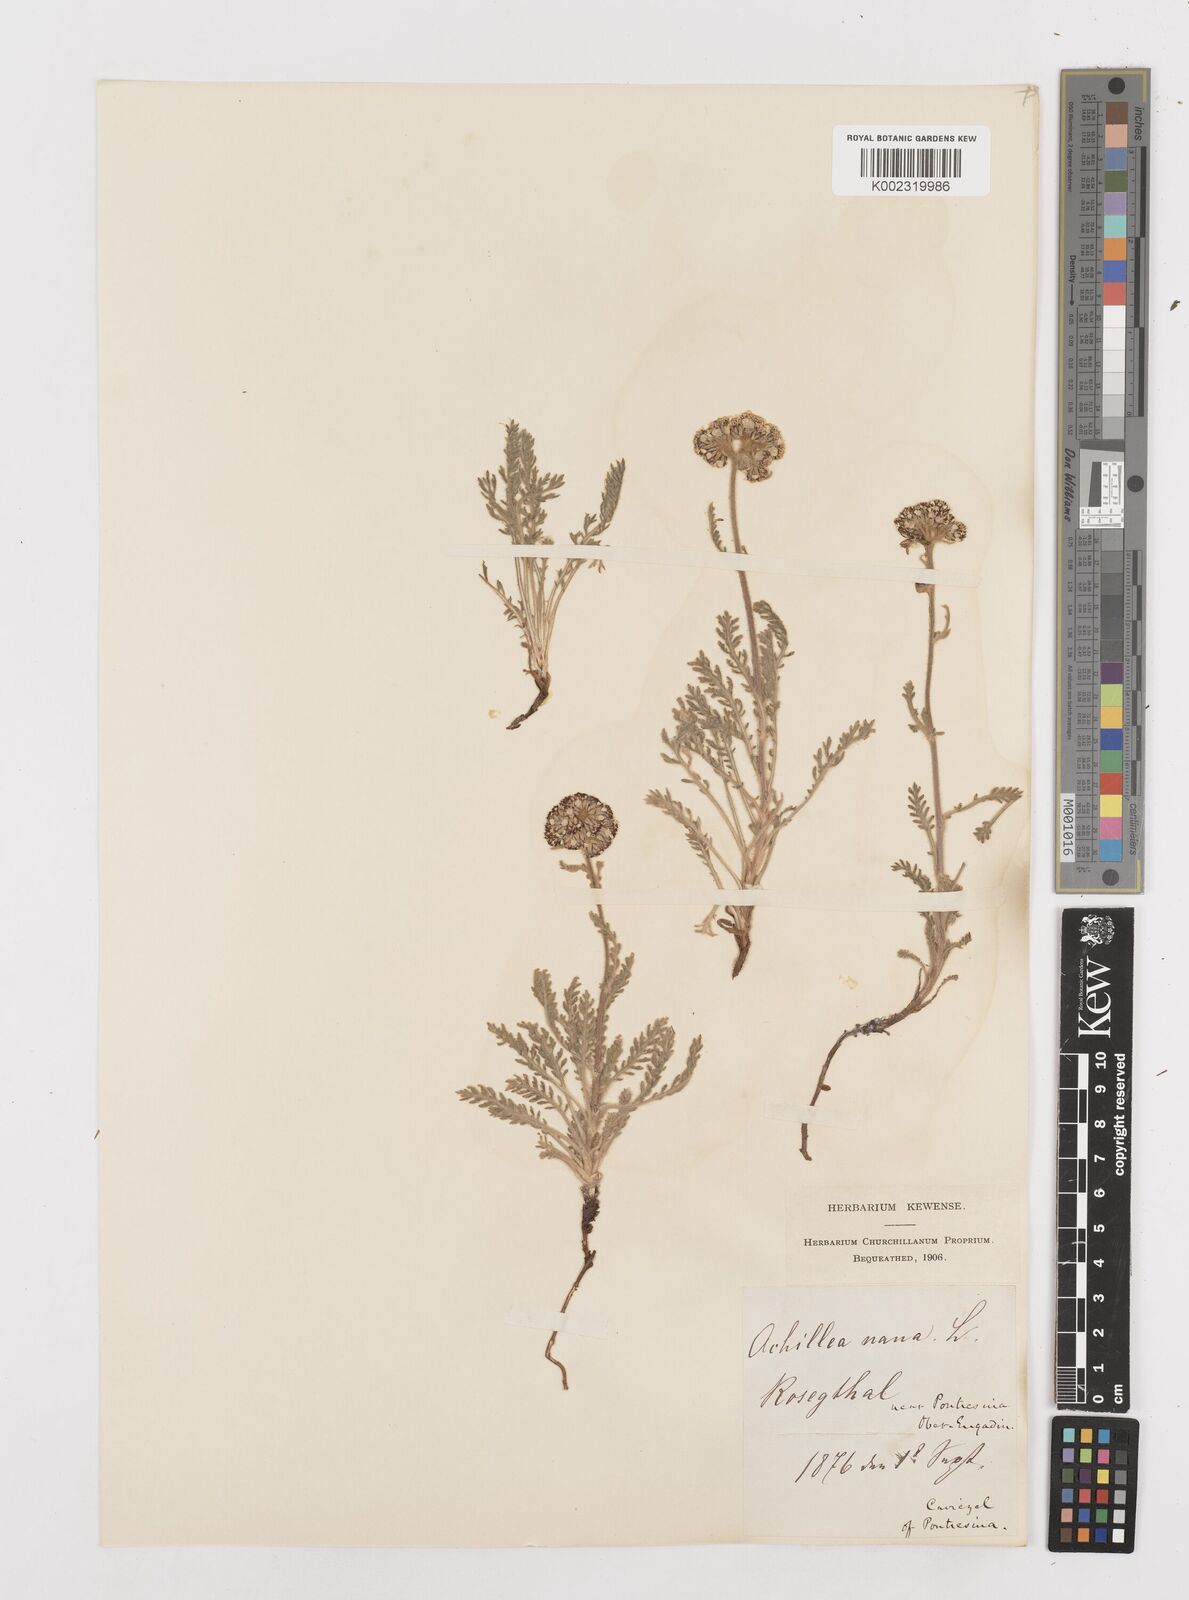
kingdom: Plantae
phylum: Tracheophyta
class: Magnoliopsida
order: Asterales
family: Asteraceae
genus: Achillea
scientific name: Achillea nana
